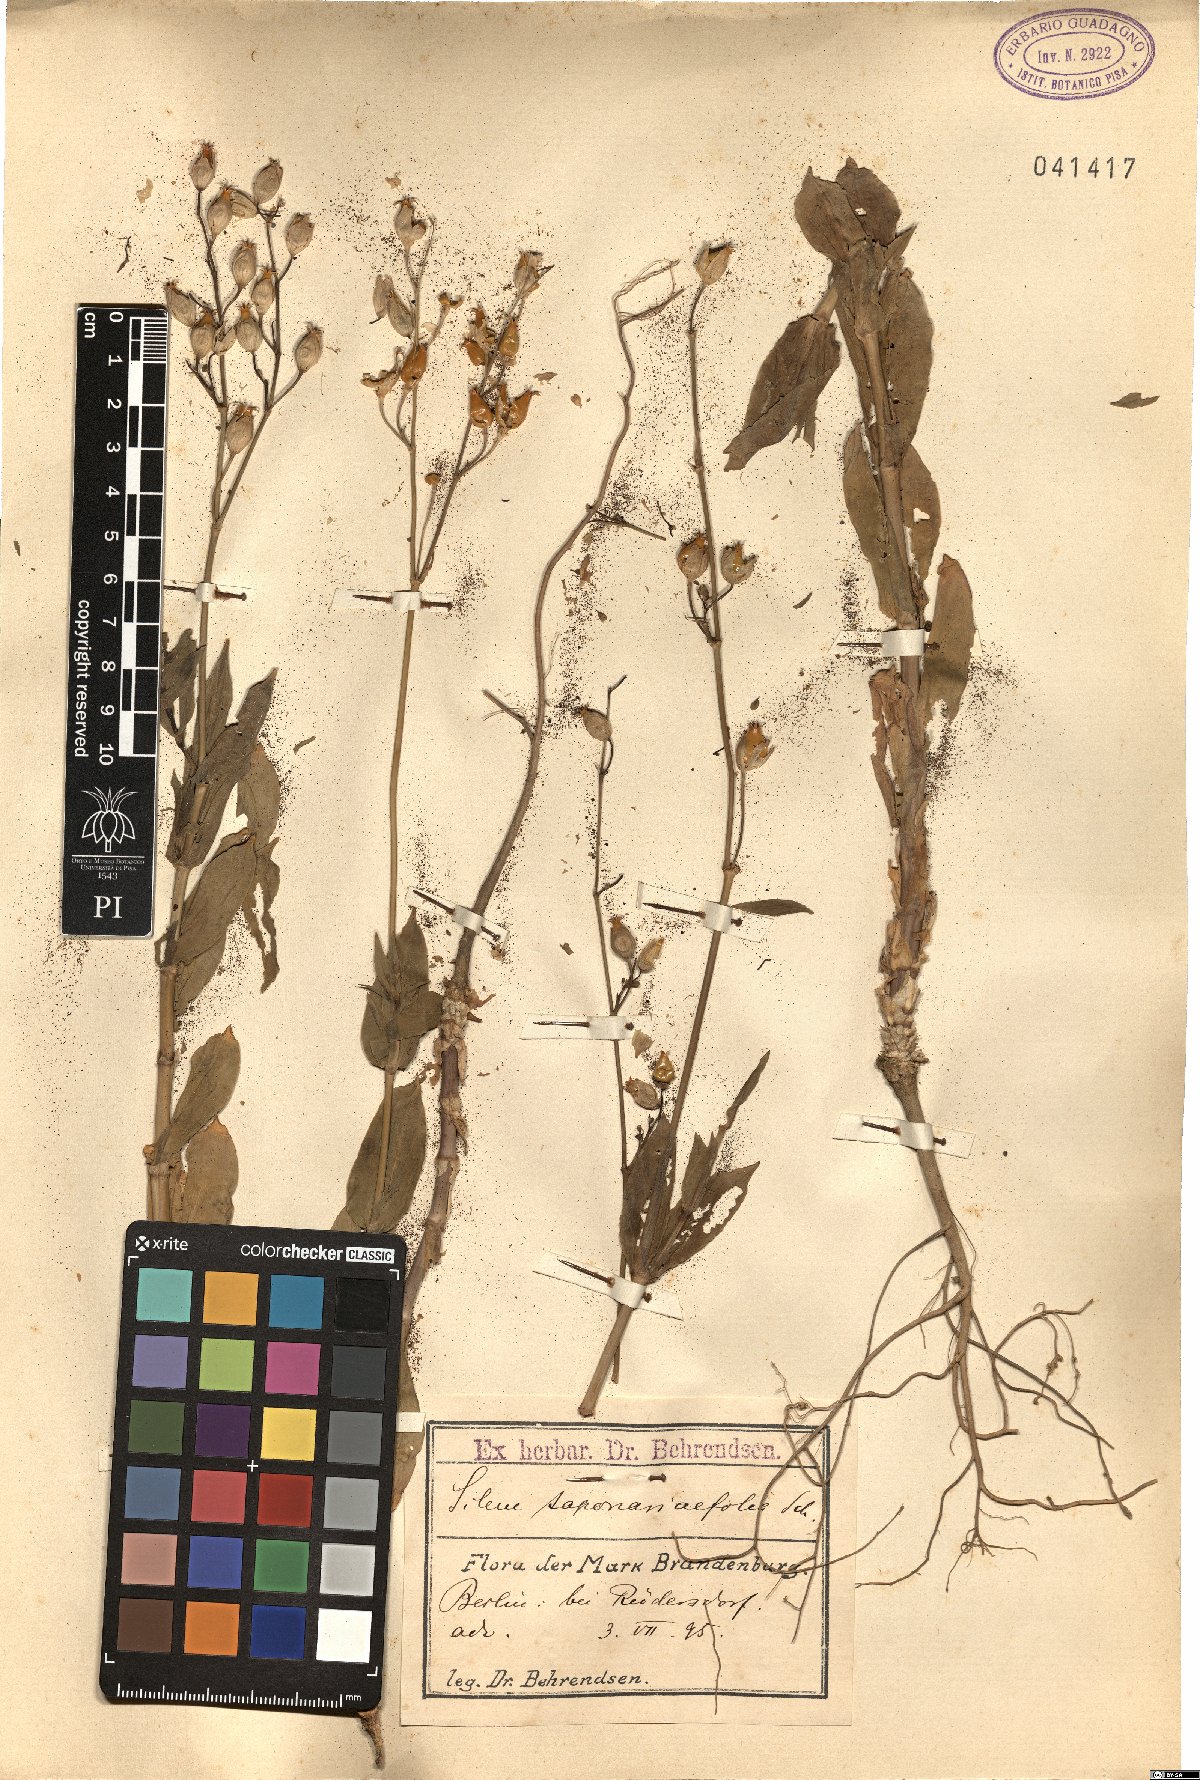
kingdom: Plantae
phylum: Tracheophyta
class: Magnoliopsida
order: Caryophyllales
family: Caryophyllaceae
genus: Silene
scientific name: Silene csereii
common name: Balkan catchfly
